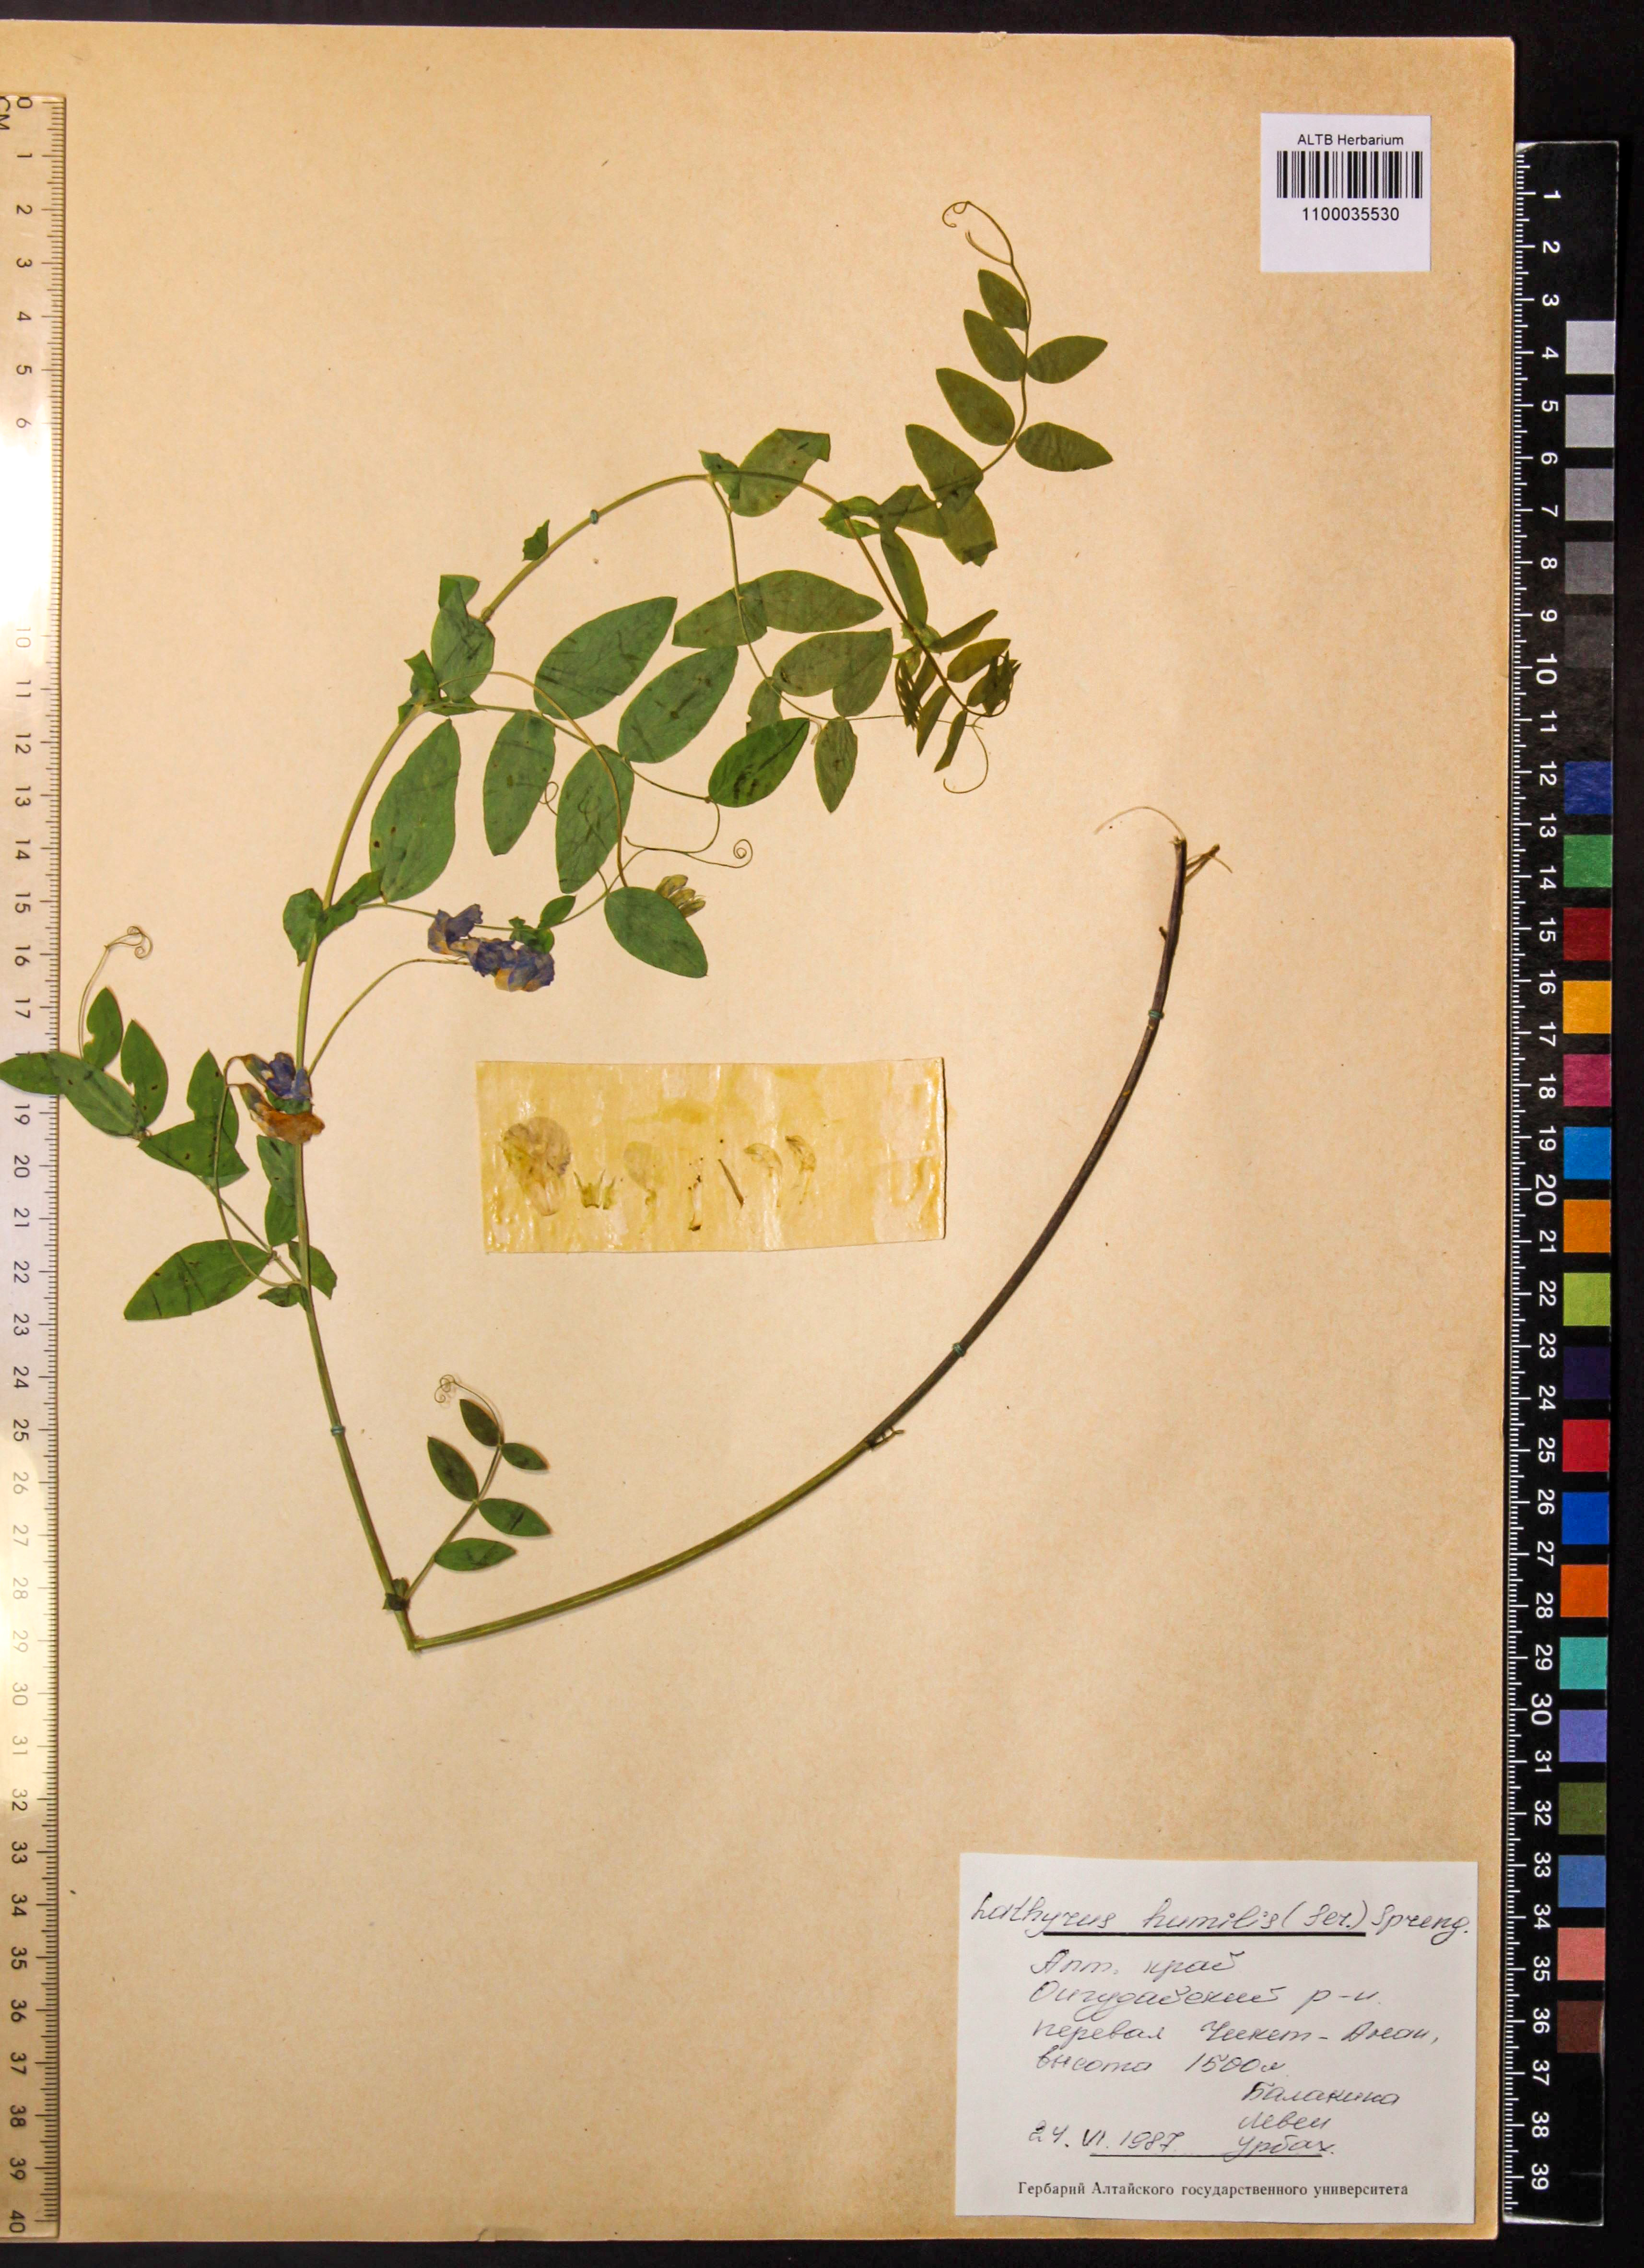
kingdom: Plantae
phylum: Tracheophyta
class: Magnoliopsida
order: Fabales
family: Fabaceae
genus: Lathyrus
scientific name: Lathyrus humilis
